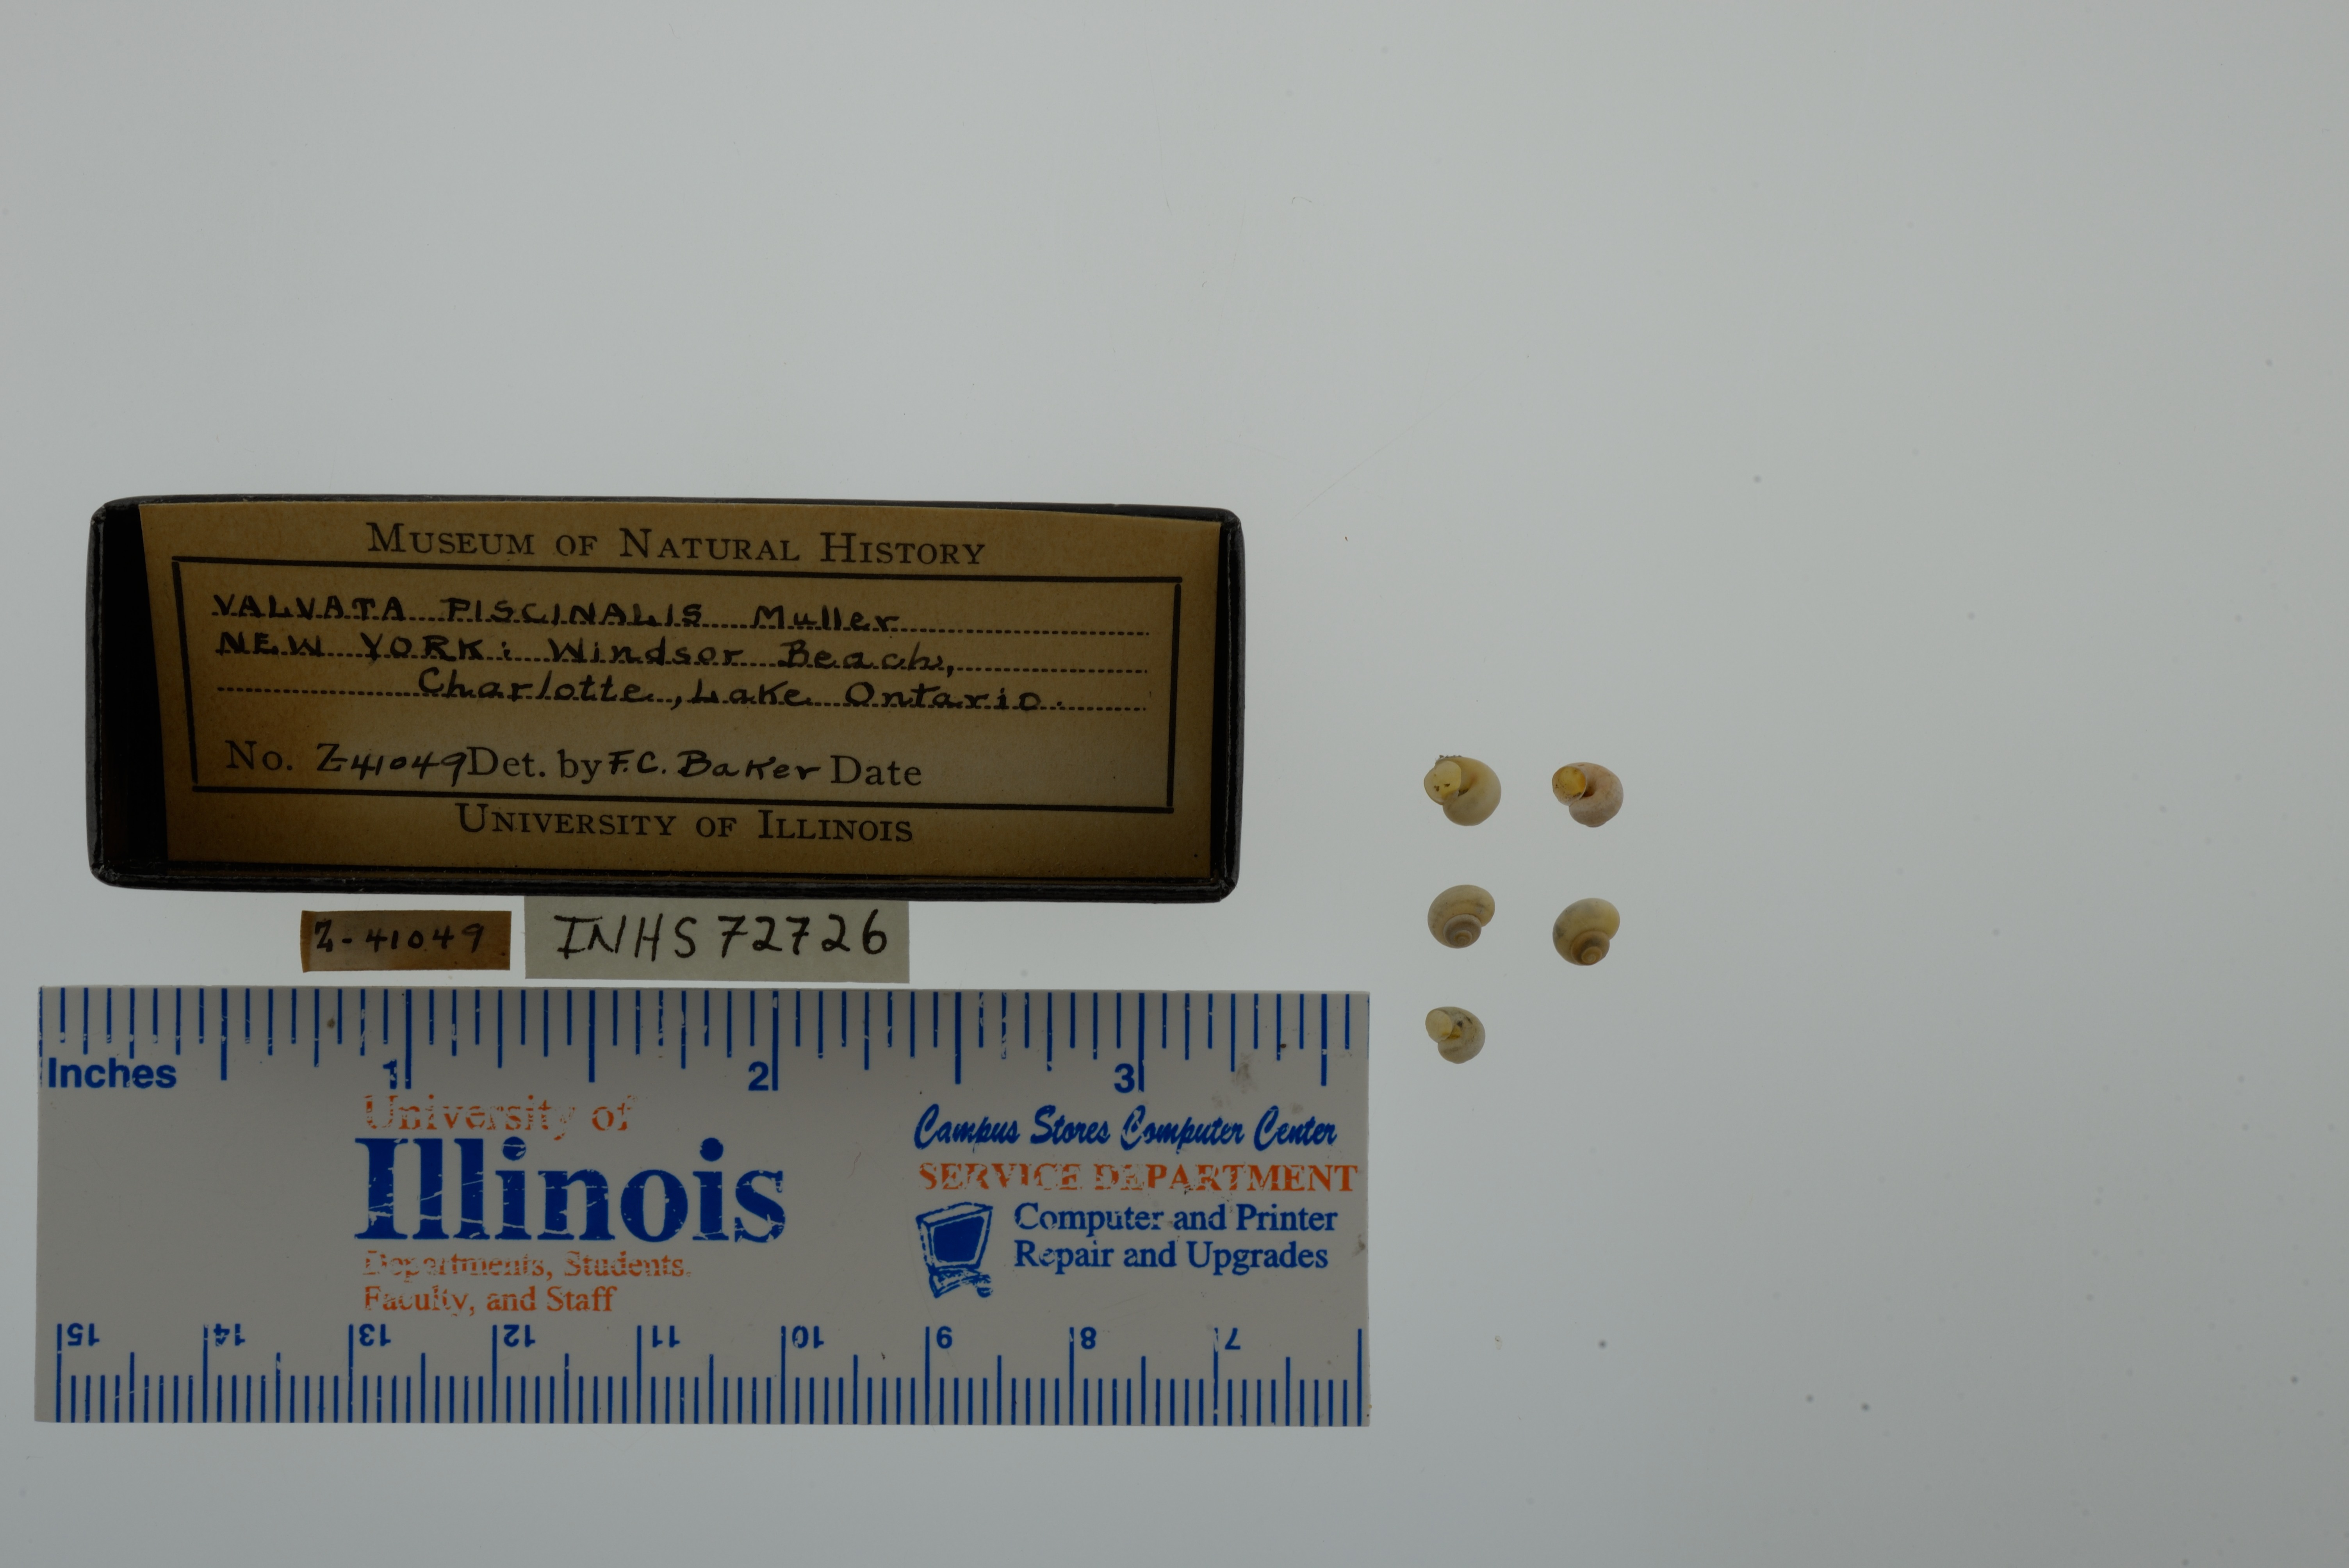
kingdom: Animalia
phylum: Mollusca
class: Gastropoda
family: Valvatidae
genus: Valvata
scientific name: Valvata piscinalis
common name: European valve snail
